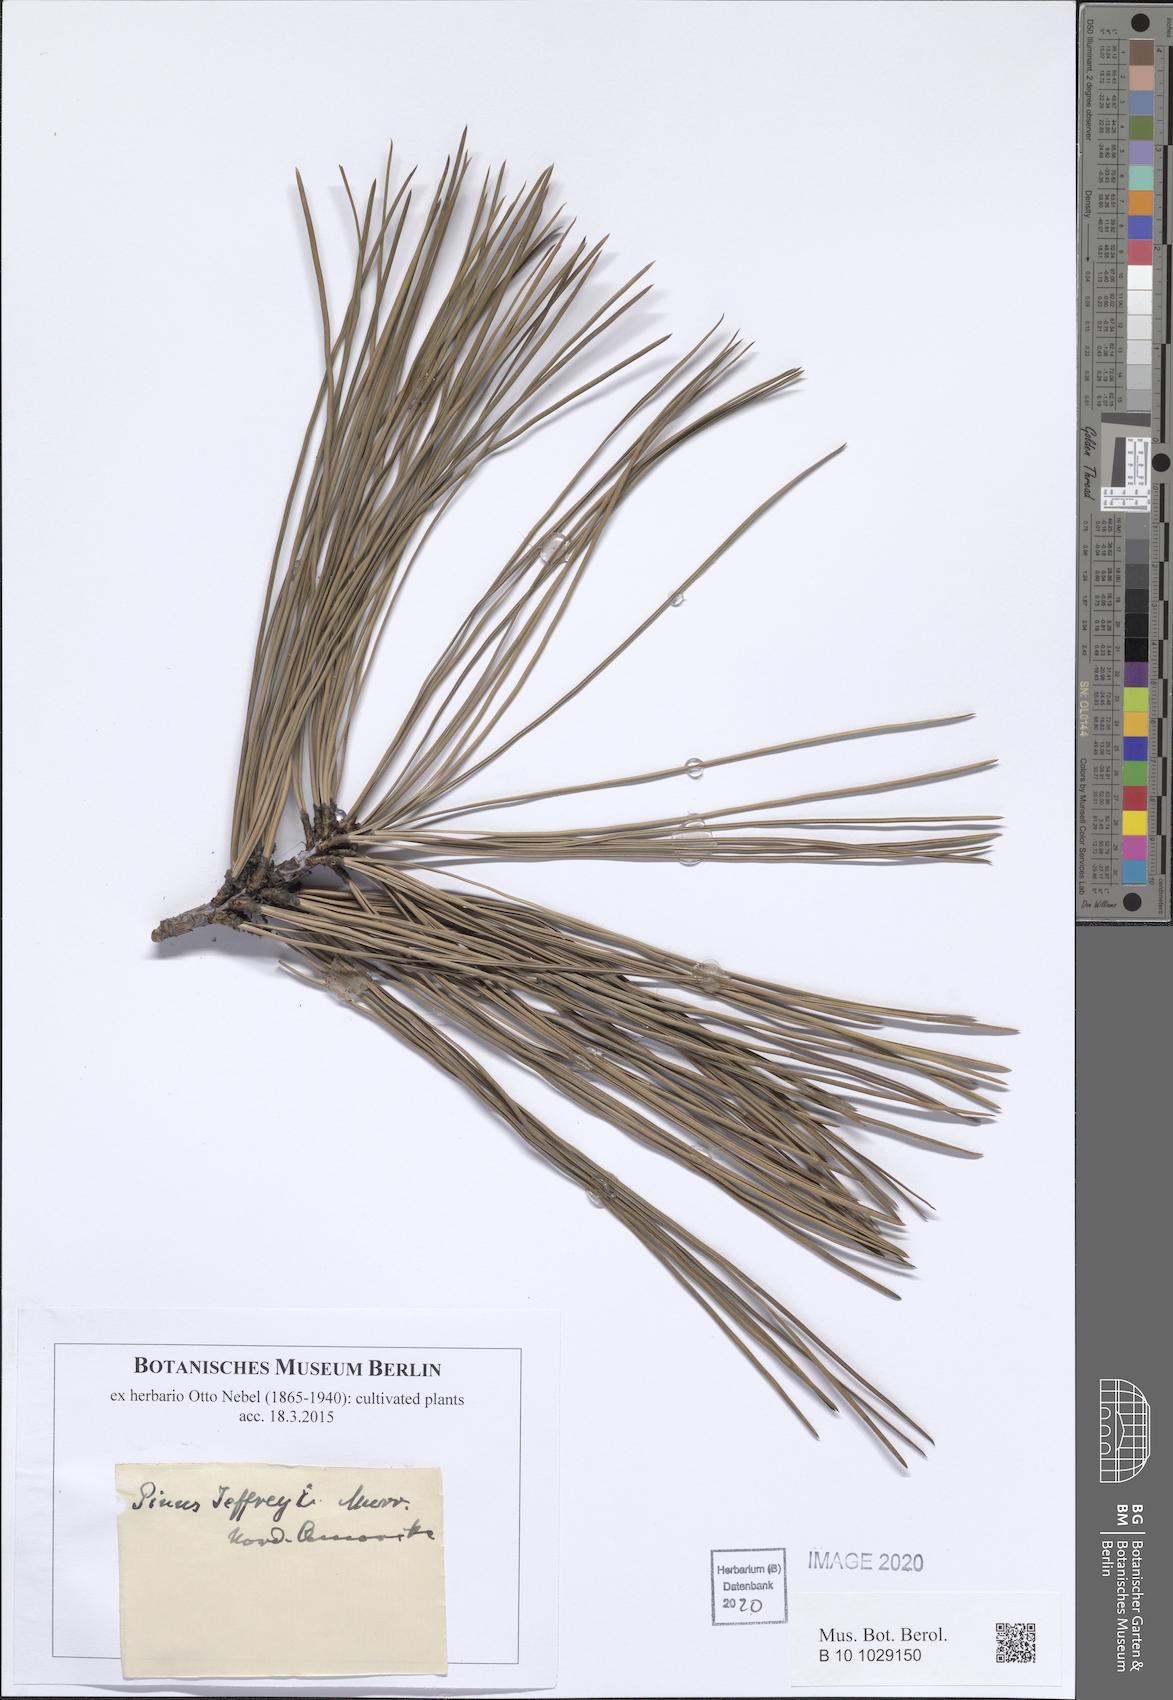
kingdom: Plantae
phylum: Tracheophyta
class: Pinopsida
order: Pinales
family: Pinaceae
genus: Pinus
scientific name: Pinus jeffreyi
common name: Jeffrey pine
